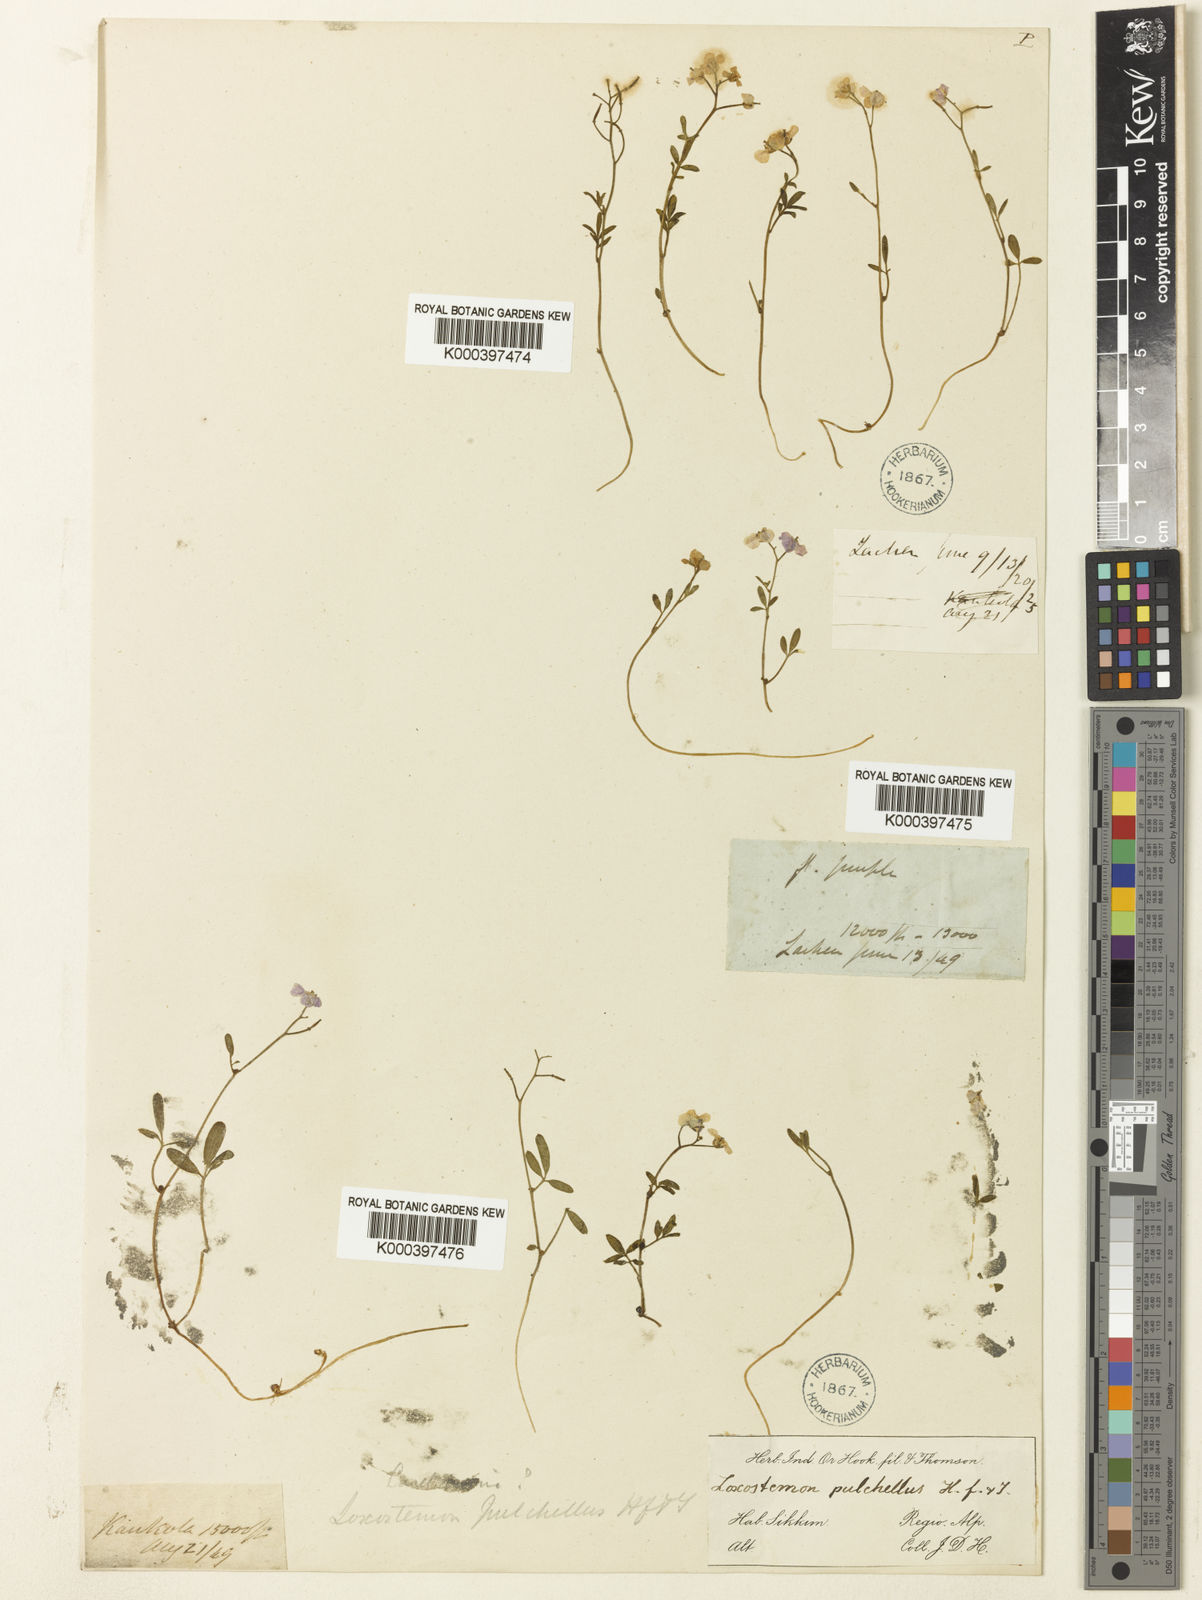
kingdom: Plantae
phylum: Tracheophyta
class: Magnoliopsida
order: Brassicales
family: Brassicaceae
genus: Cardamine
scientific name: Cardamine pulchella
